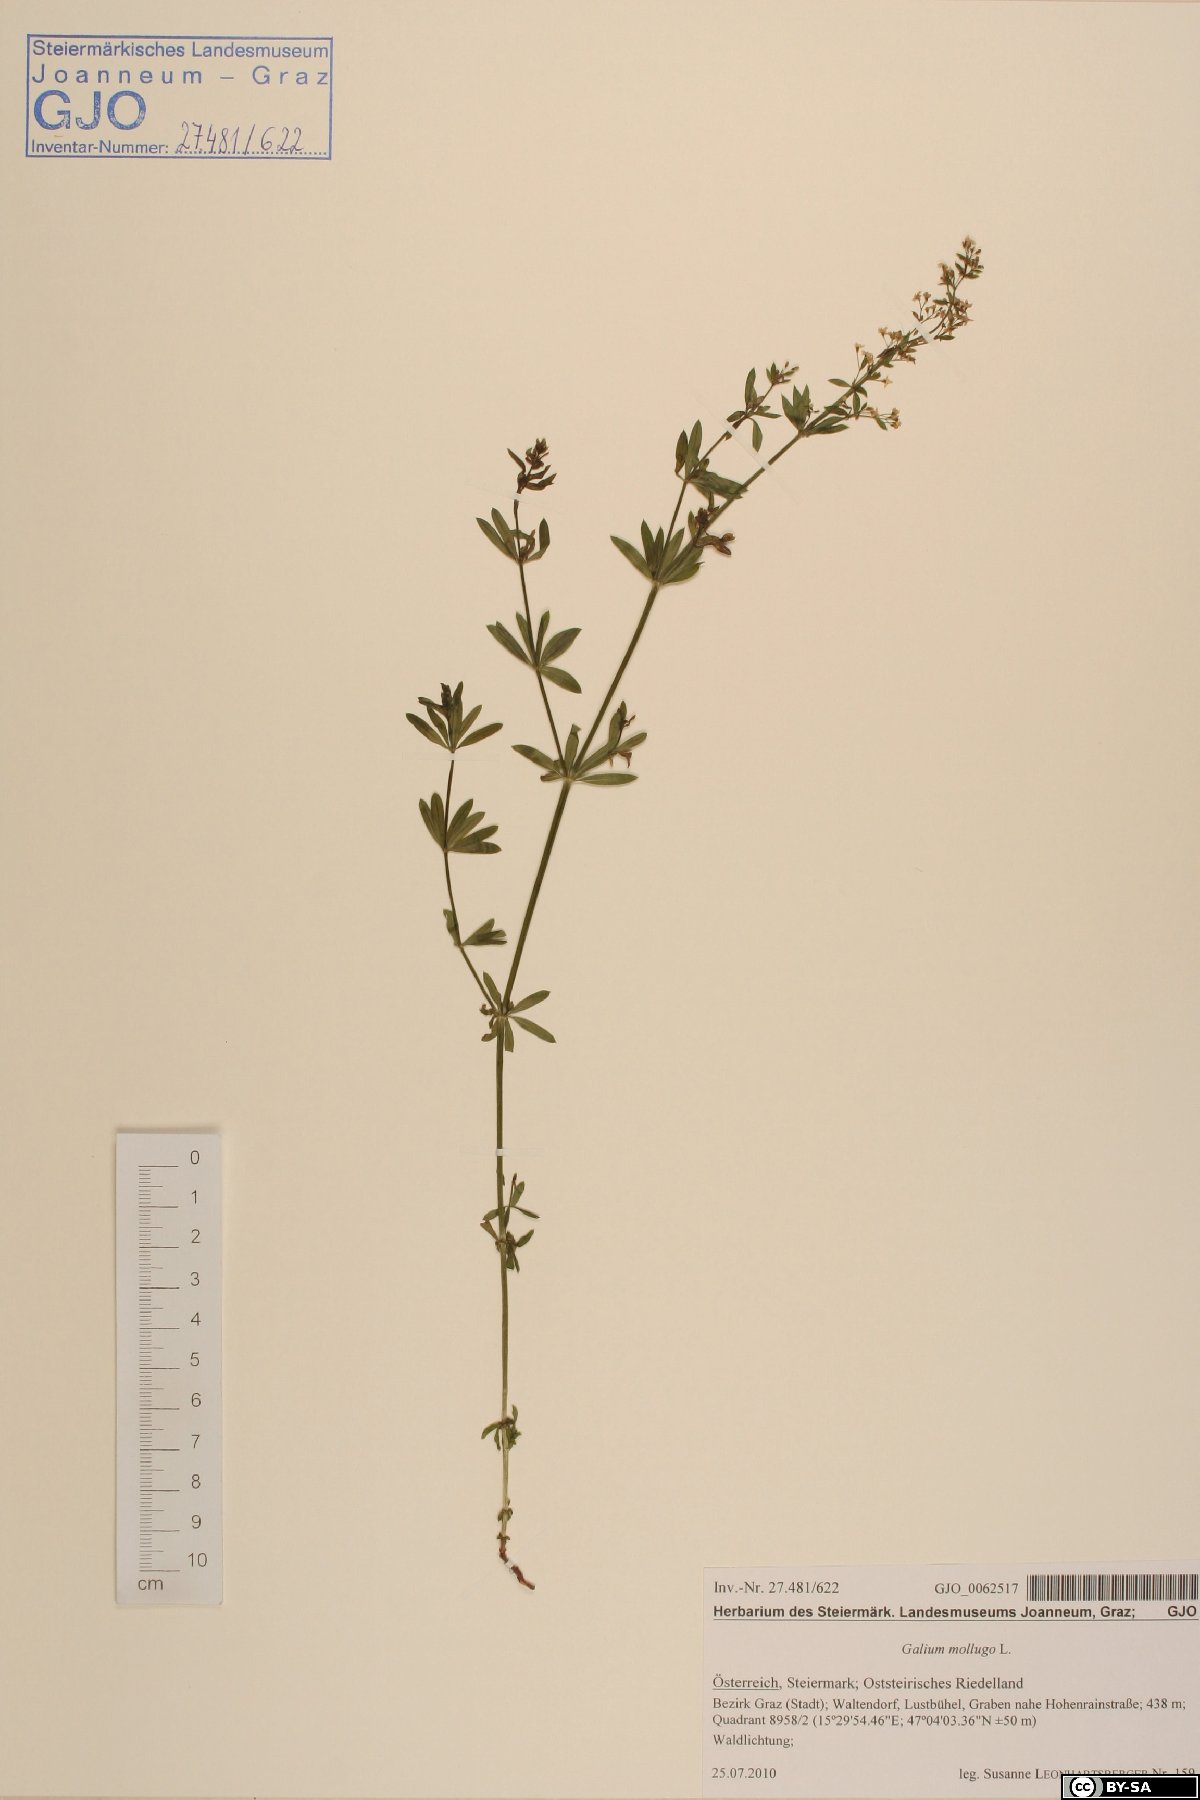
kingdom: Plantae
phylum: Tracheophyta
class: Magnoliopsida
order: Gentianales
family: Rubiaceae
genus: Galium
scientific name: Galium mollugo
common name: Hedge bedstraw
